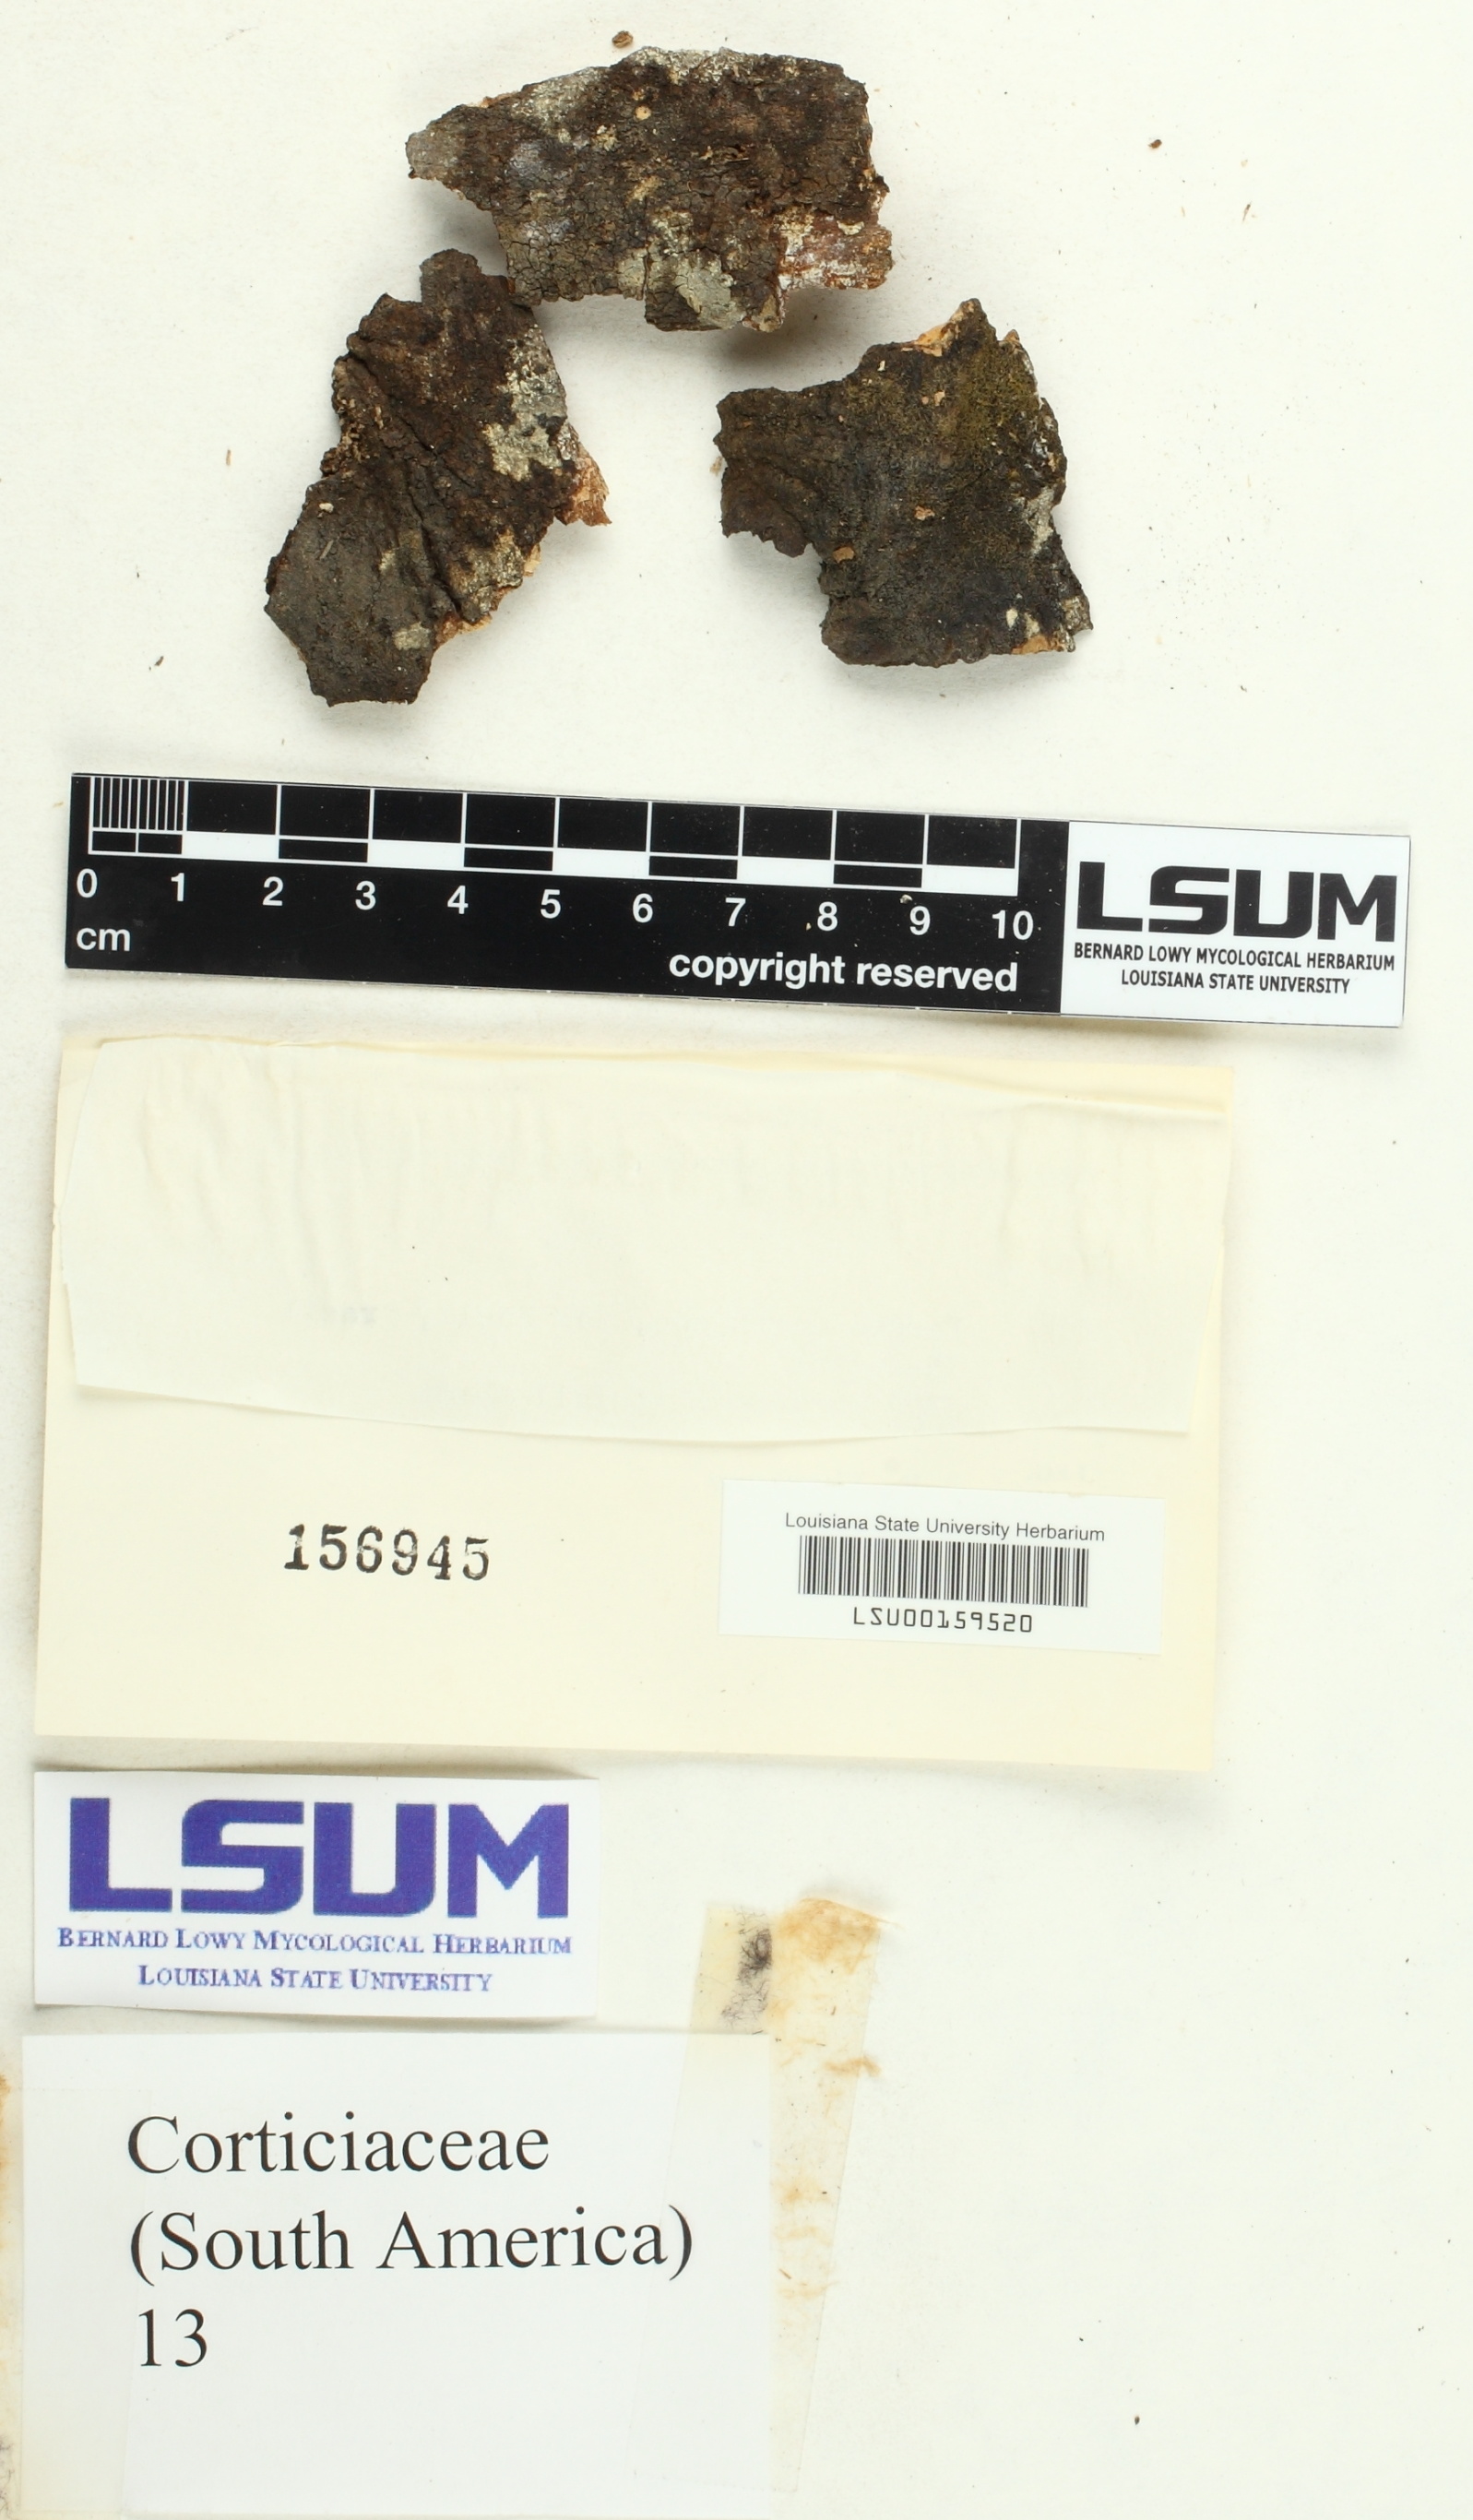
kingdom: Fungi
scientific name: Fungi
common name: Fungi
